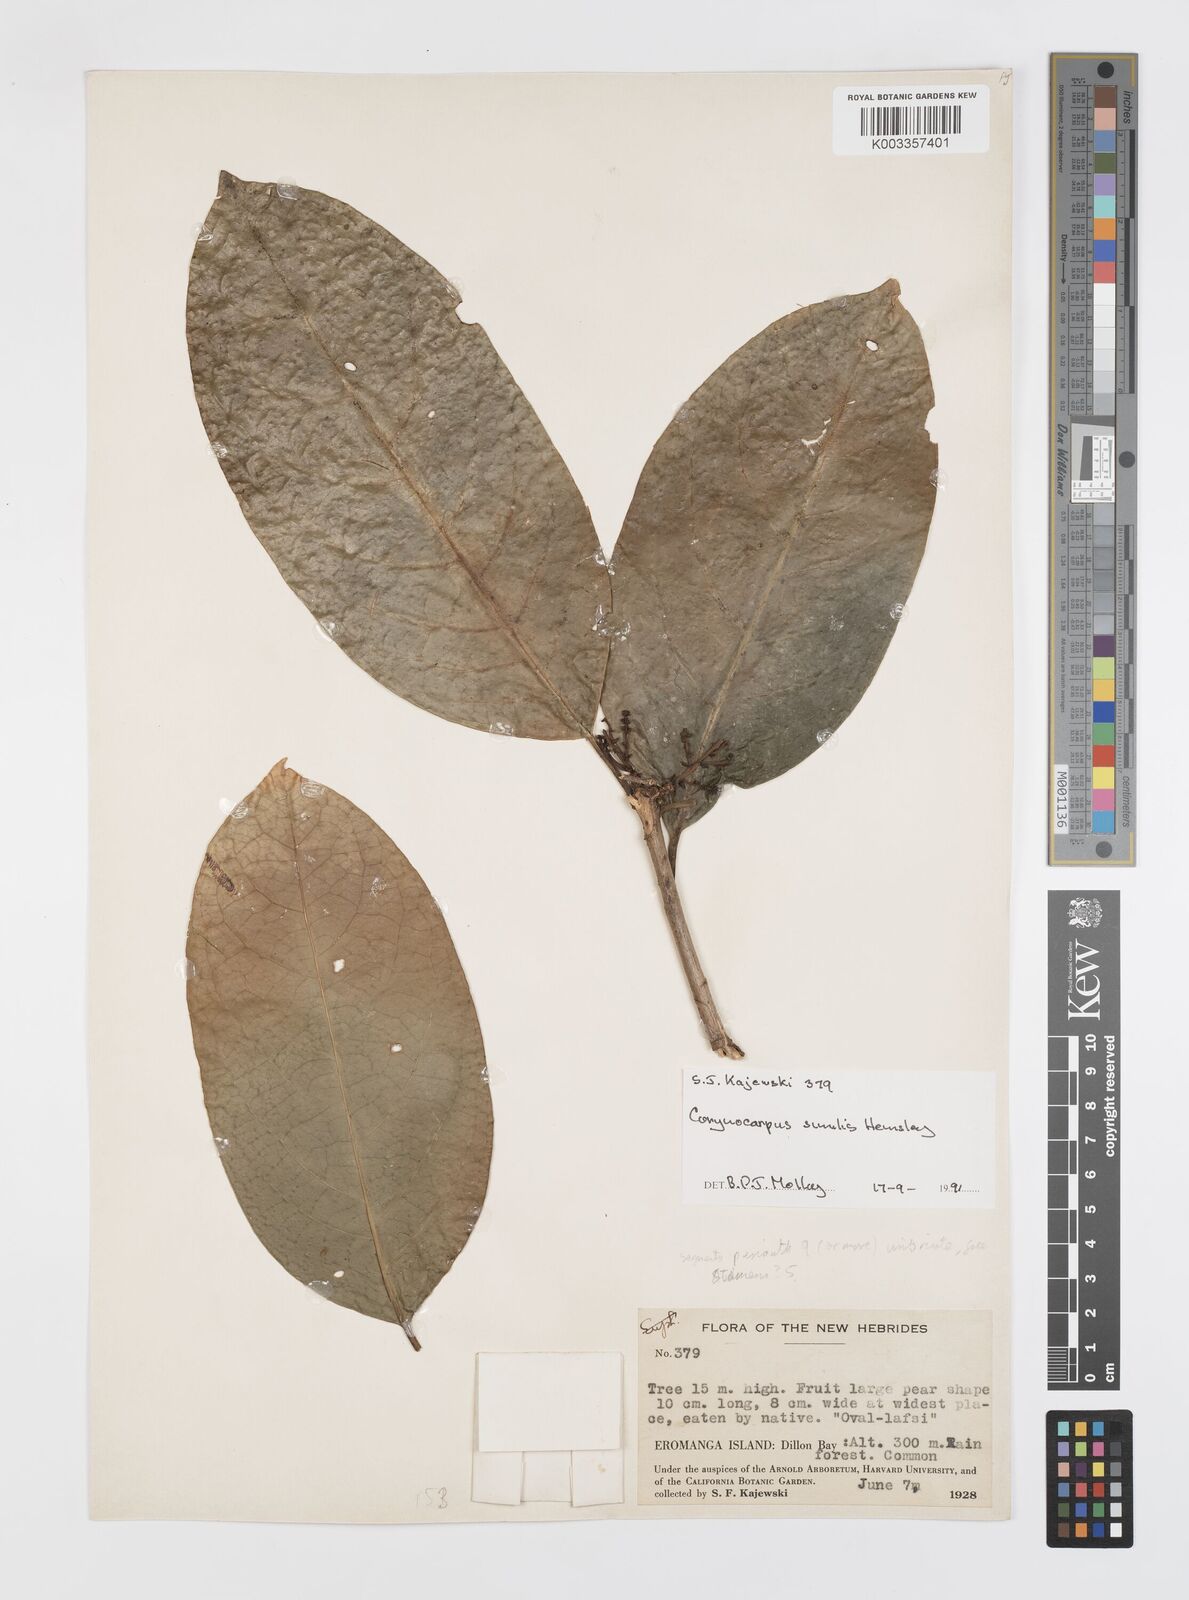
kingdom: Plantae
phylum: Tracheophyta
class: Magnoliopsida
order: Cucurbitales
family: Corynocarpaceae
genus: Corynocarpus
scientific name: Corynocarpus similis
